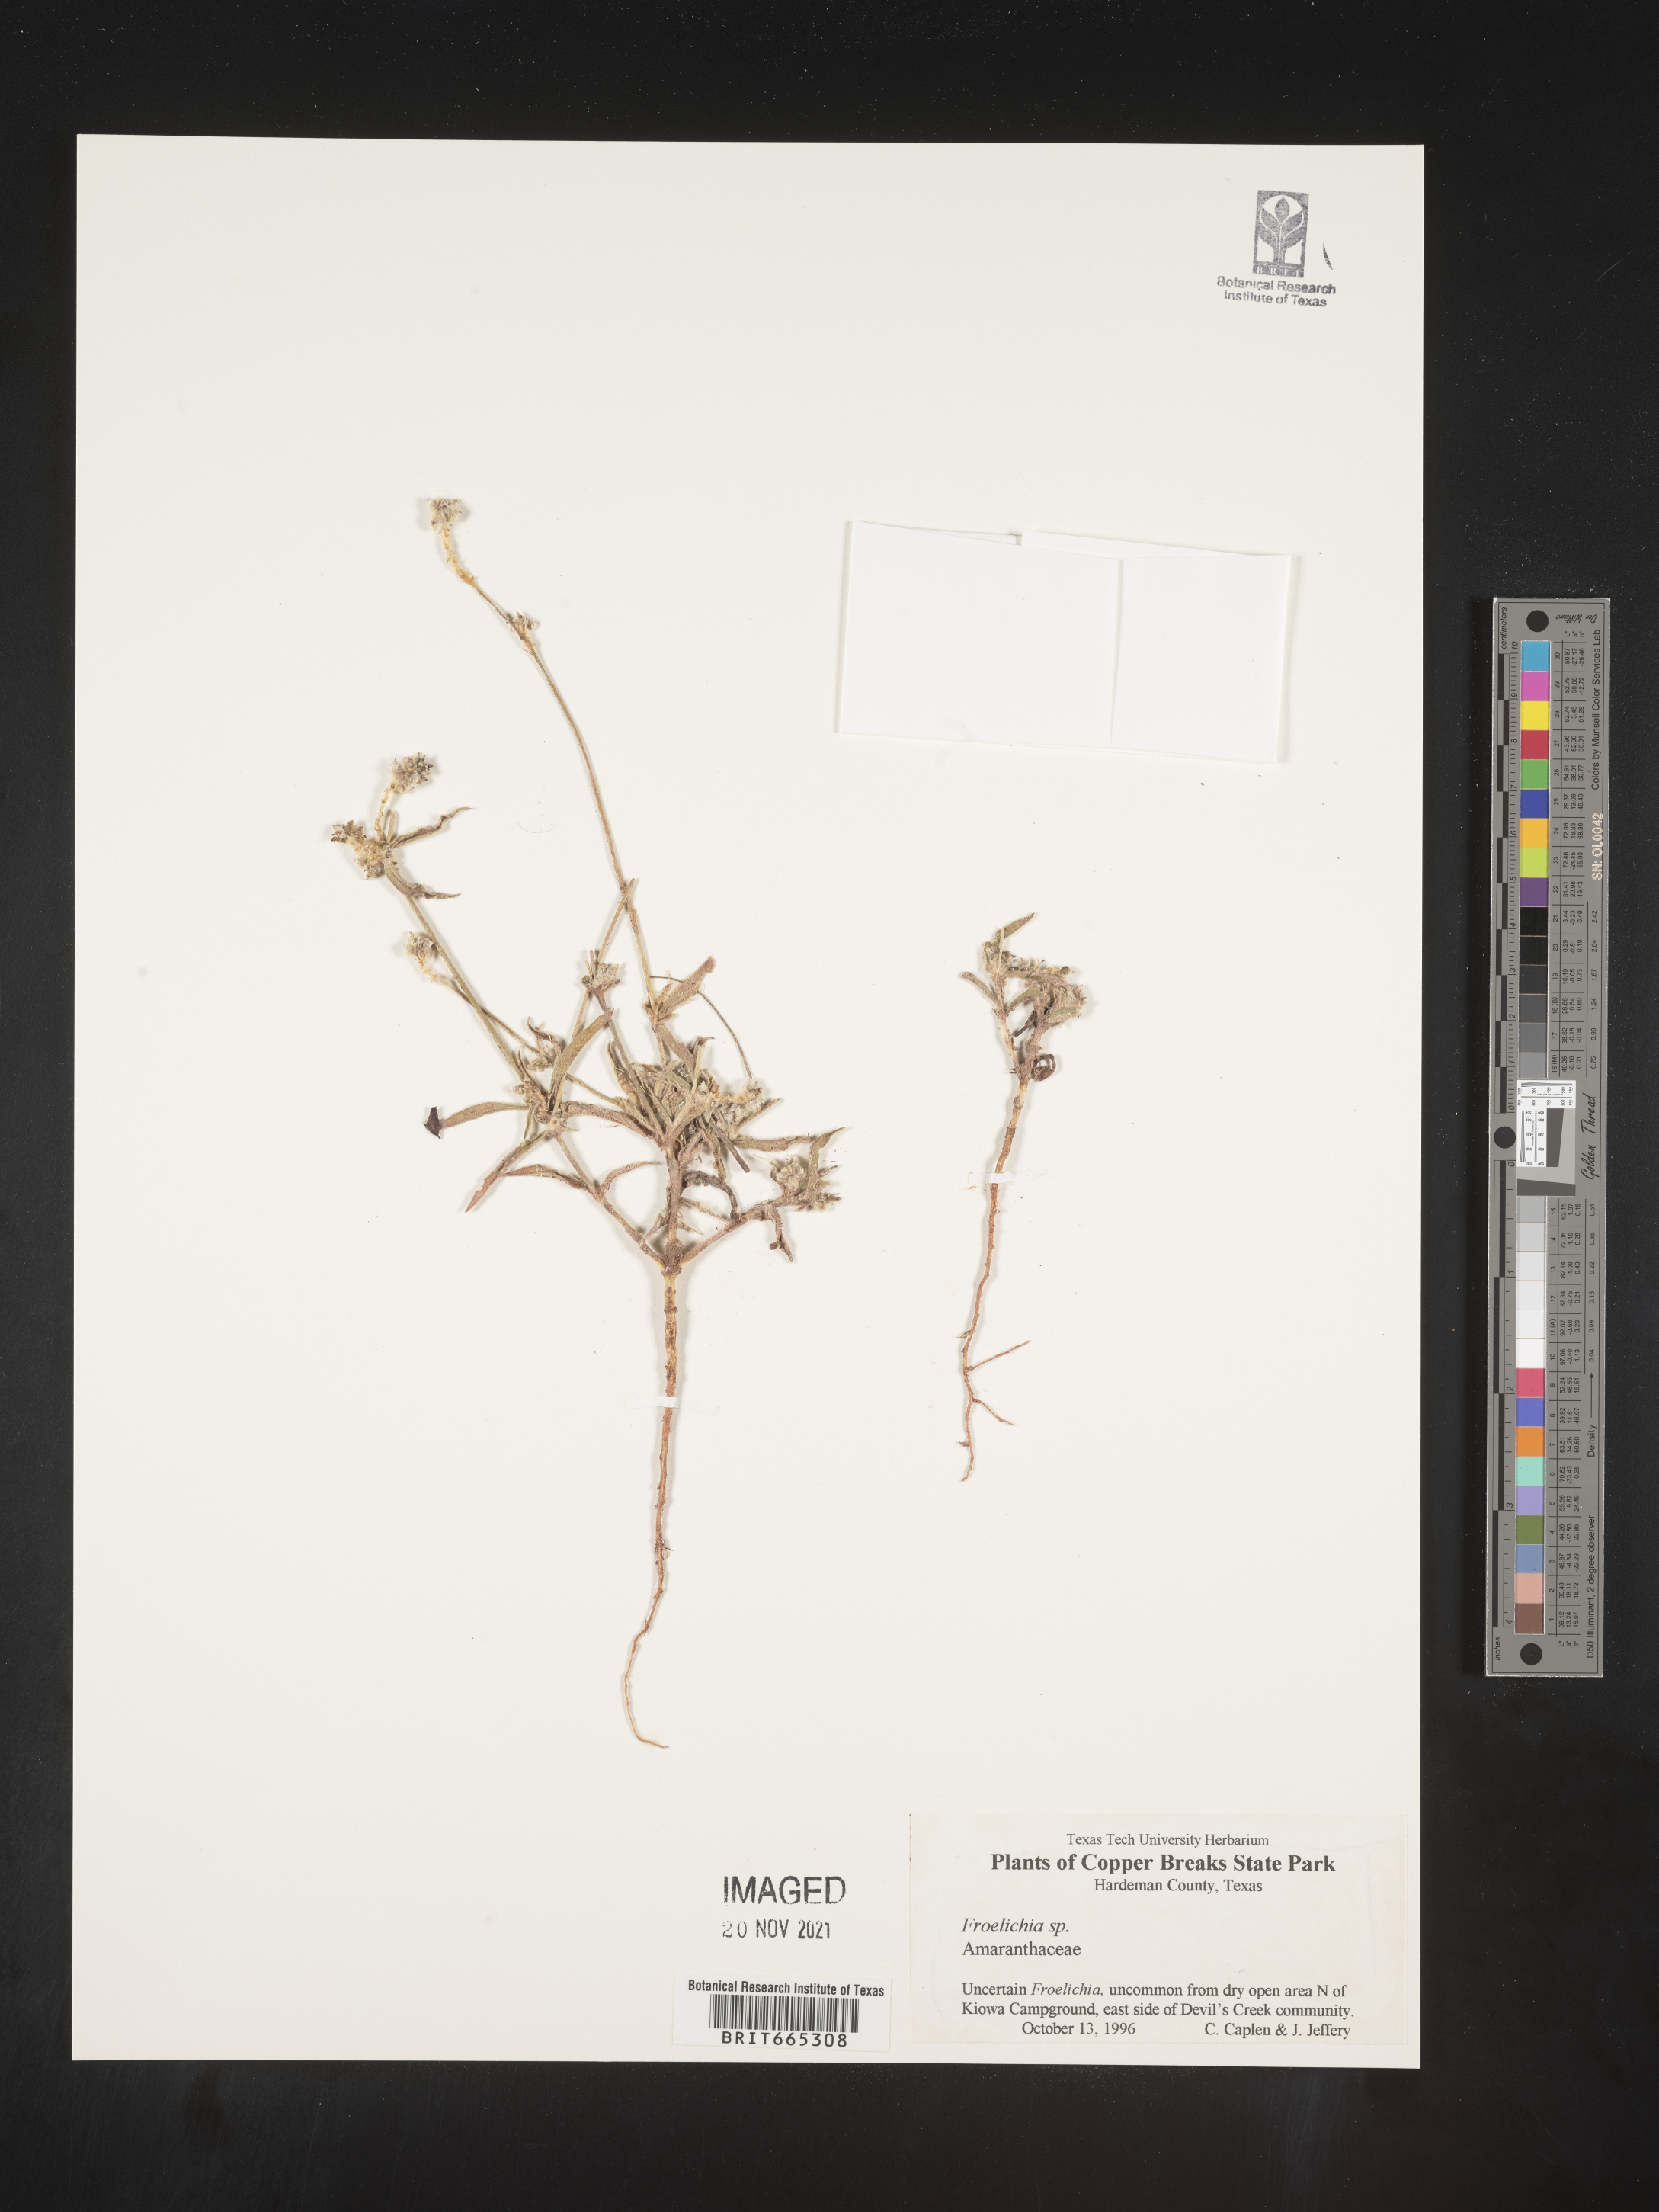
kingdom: Plantae
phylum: Tracheophyta
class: Magnoliopsida
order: Caryophyllales
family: Amaranthaceae
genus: Froelichia
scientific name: Froelichia
